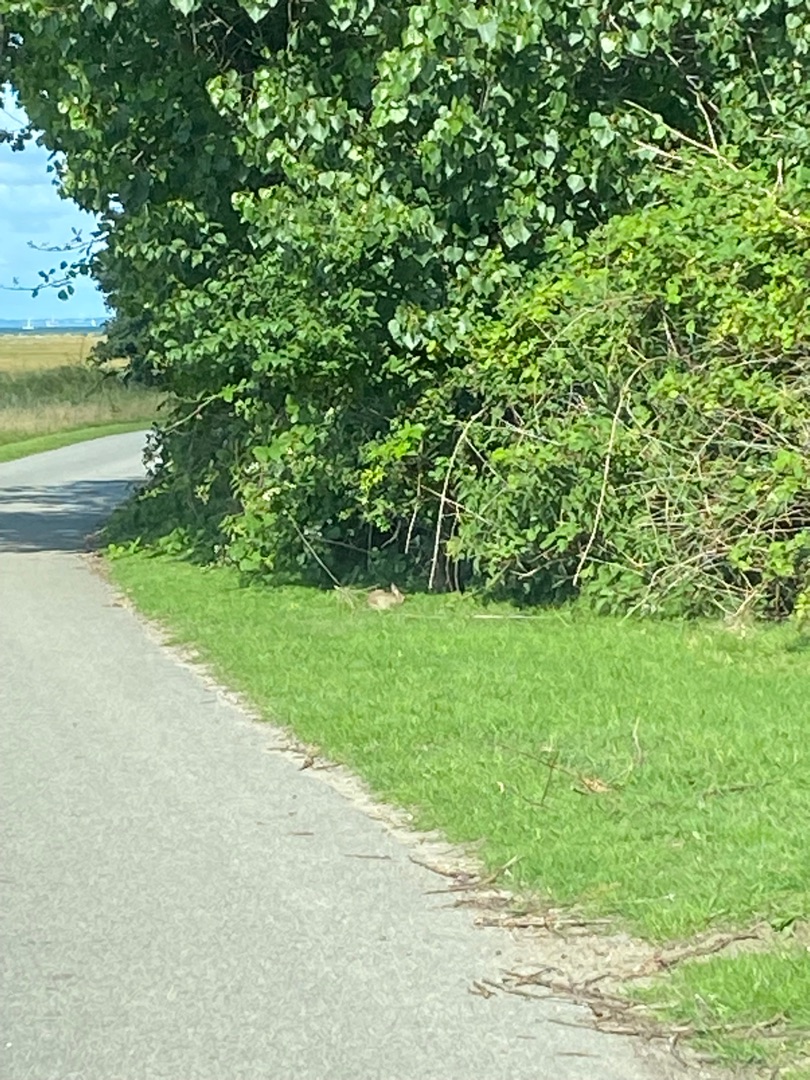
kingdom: Animalia
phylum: Chordata
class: Mammalia
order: Lagomorpha
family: Leporidae
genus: Oryctolagus
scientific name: Oryctolagus cuniculus
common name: Vildkanin
